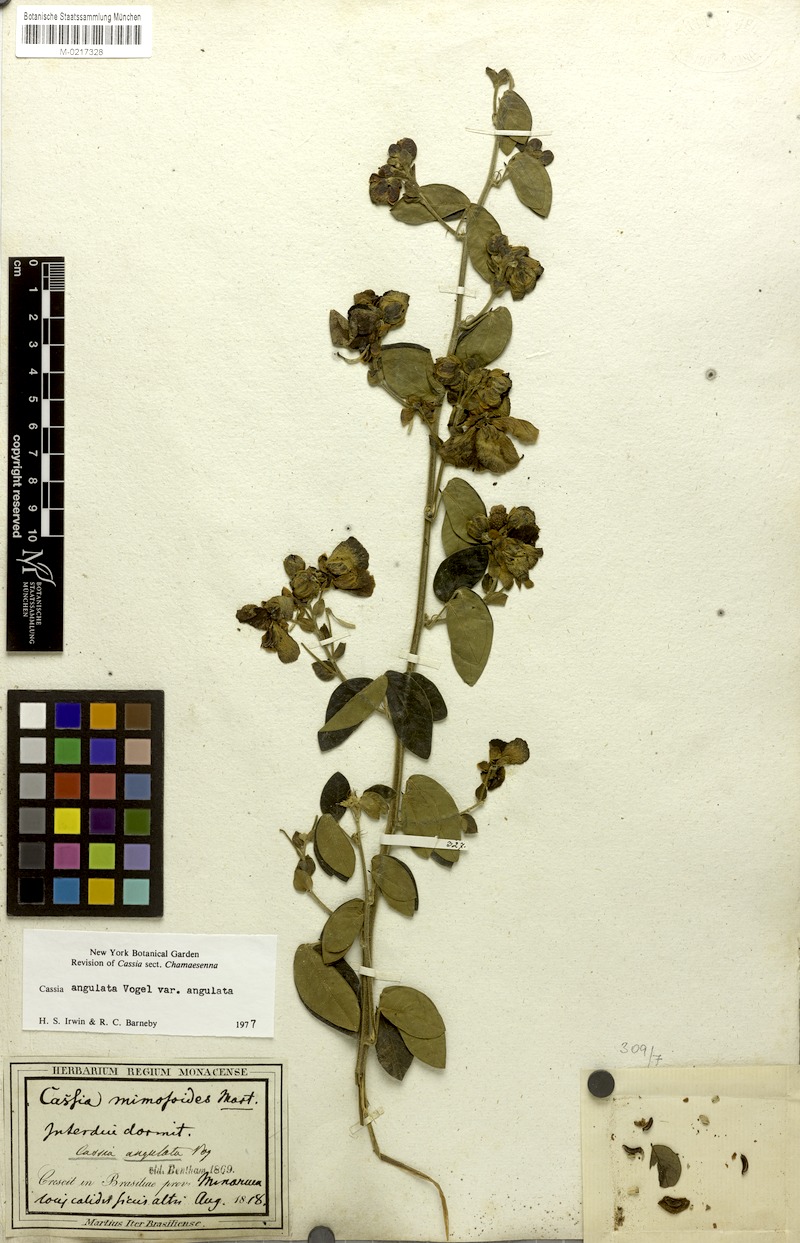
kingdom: Plantae
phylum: Tracheophyta
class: Magnoliopsida
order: Fabales
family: Fabaceae
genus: Senna
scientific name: Senna angulata
